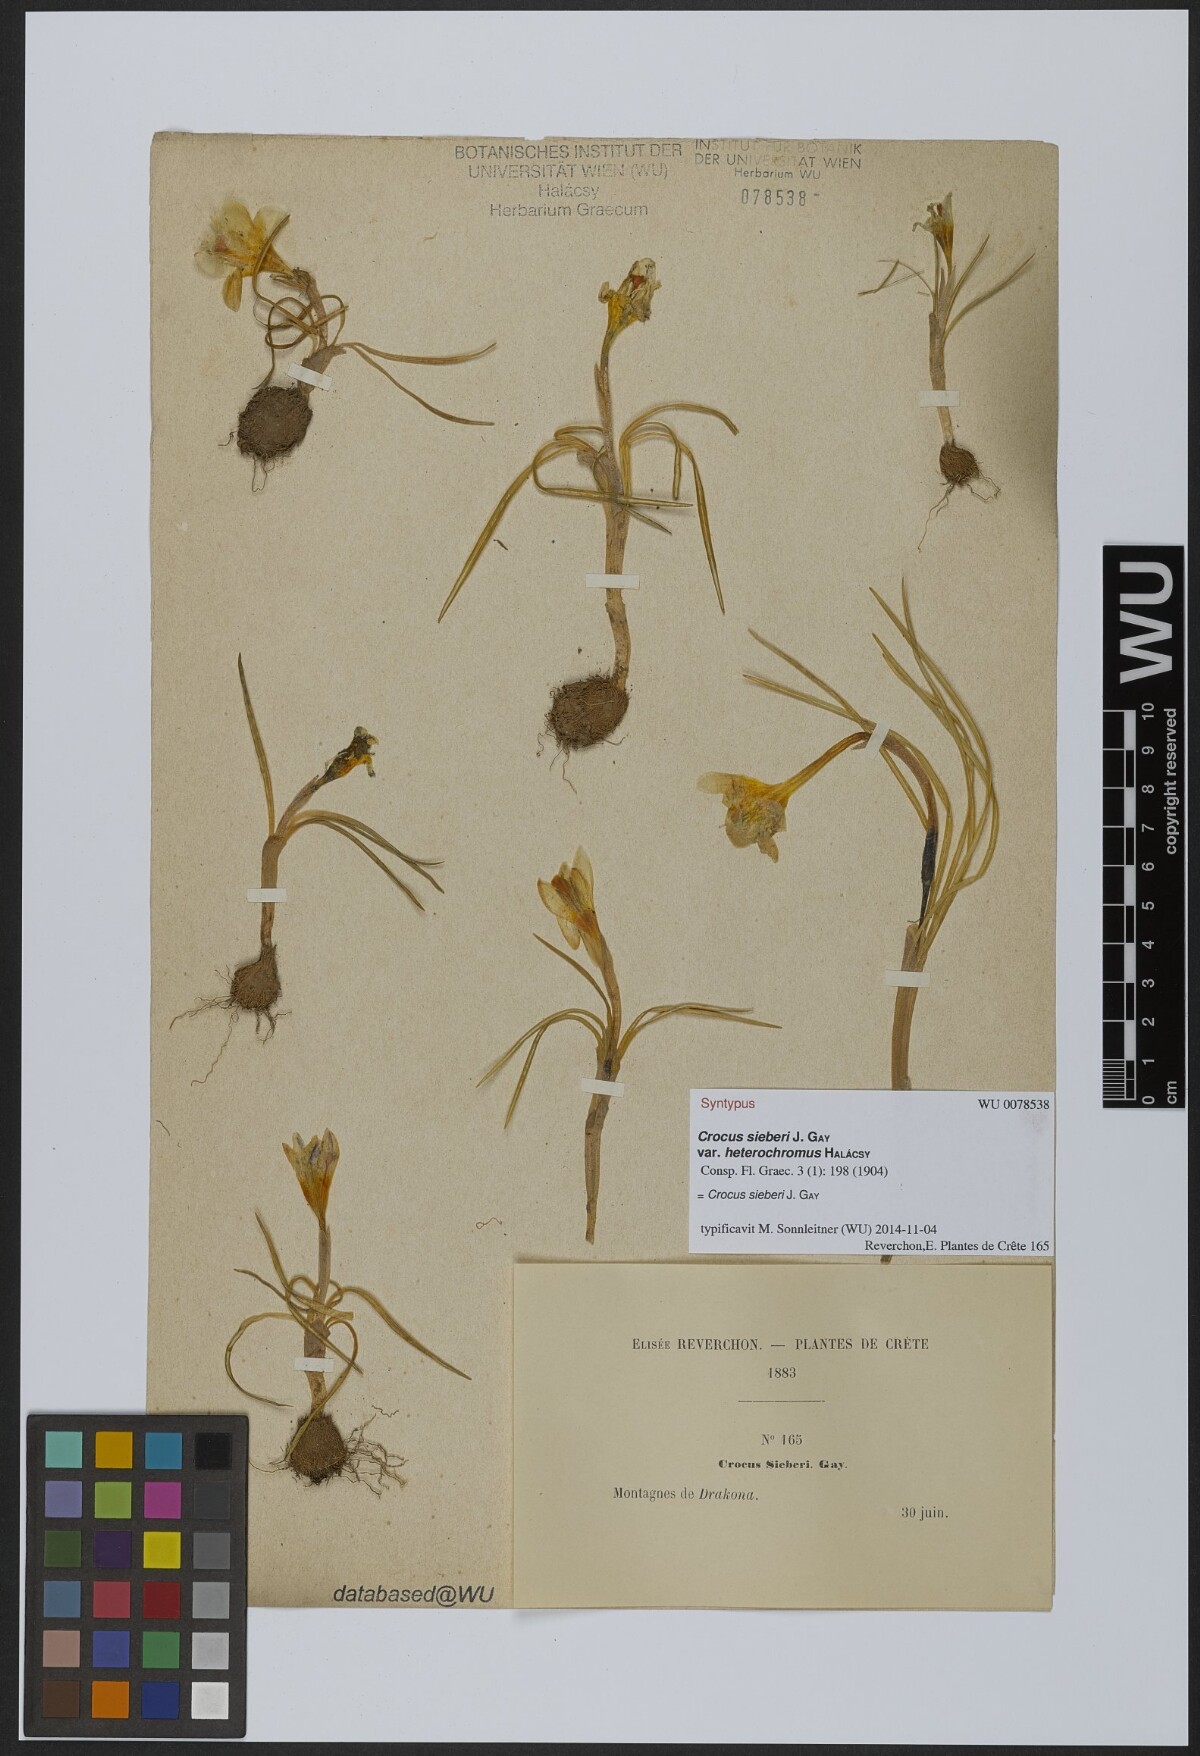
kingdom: Plantae
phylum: Tracheophyta
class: Liliopsida
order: Asparagales
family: Iridaceae
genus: Crocus
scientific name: Crocus sieberi
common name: Sieber's crocus
